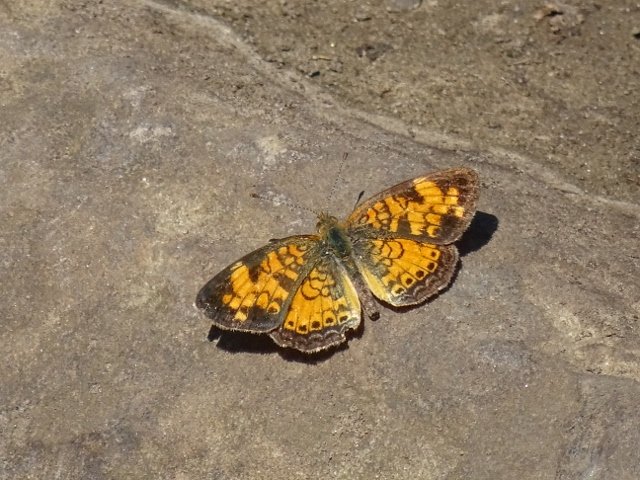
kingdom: Animalia
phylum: Arthropoda
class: Insecta
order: Lepidoptera
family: Nymphalidae
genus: Phyciodes
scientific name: Phyciodes tharos
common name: Pearl Crescent
